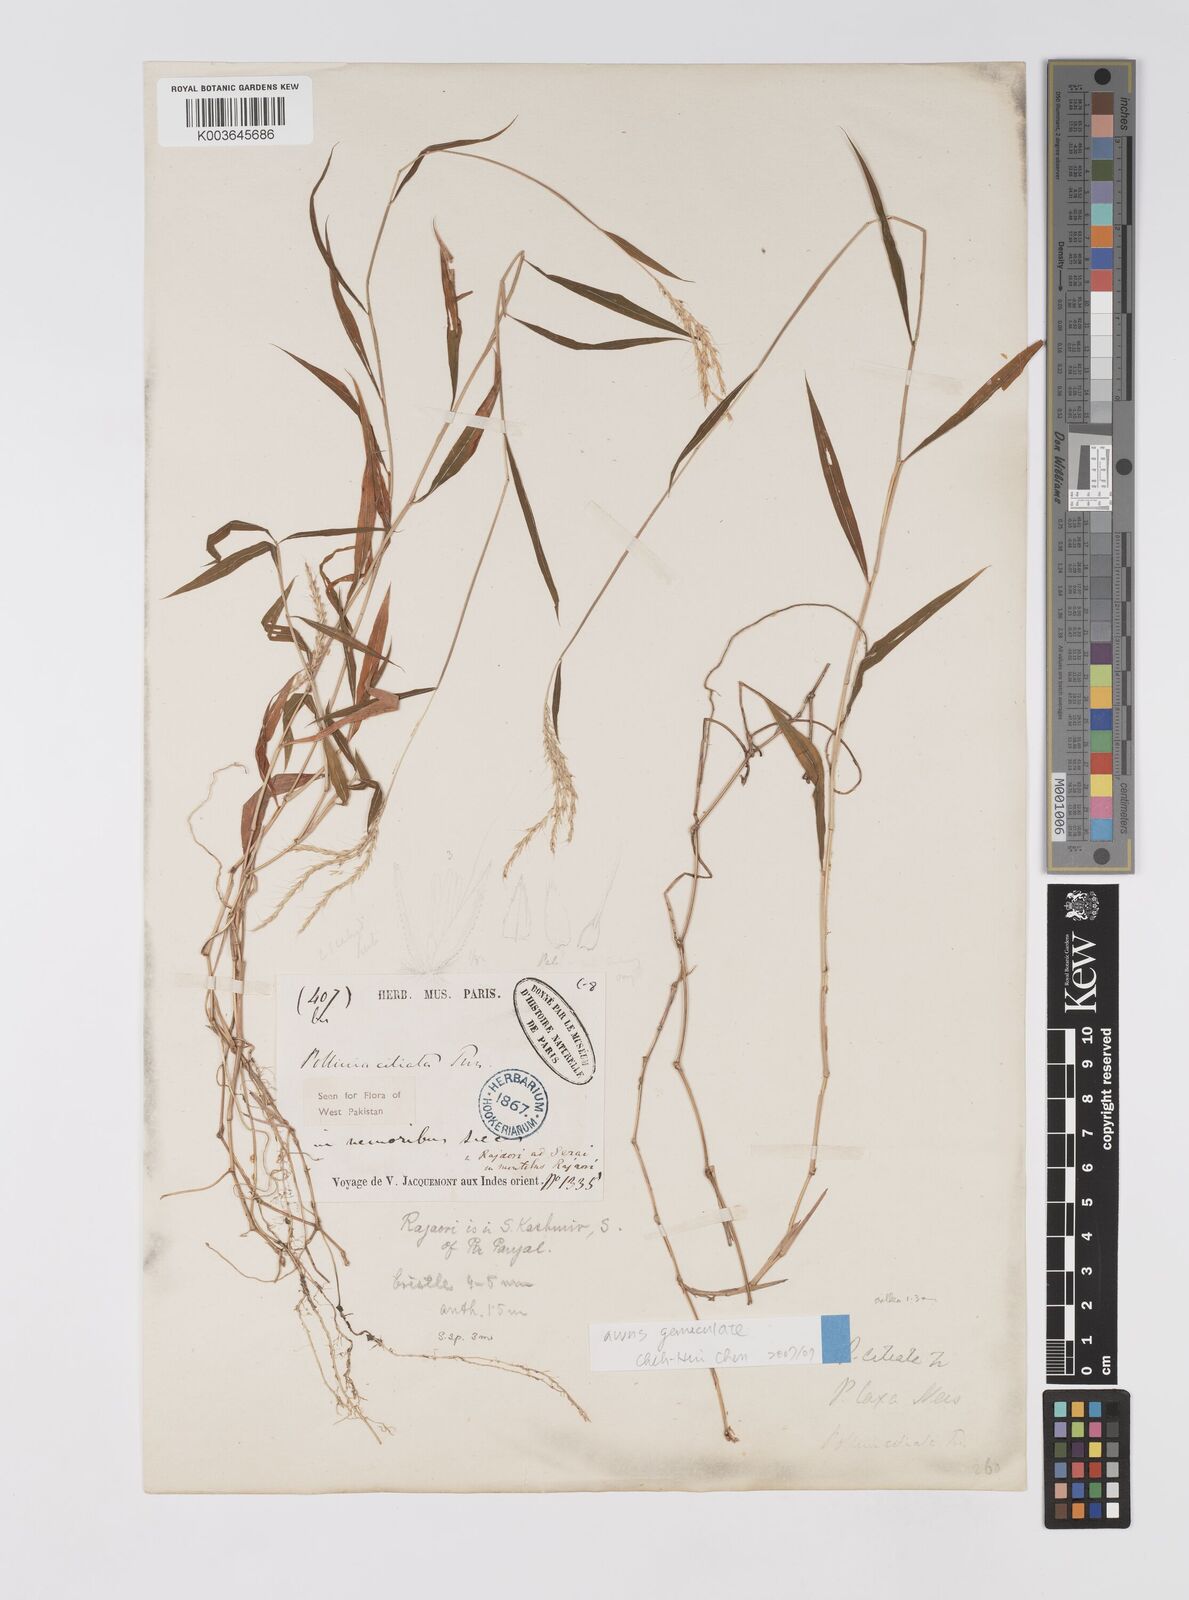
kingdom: Plantae
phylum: Tracheophyta
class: Liliopsida
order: Poales
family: Poaceae
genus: Microstegium
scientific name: Microstegium fasciculatum
